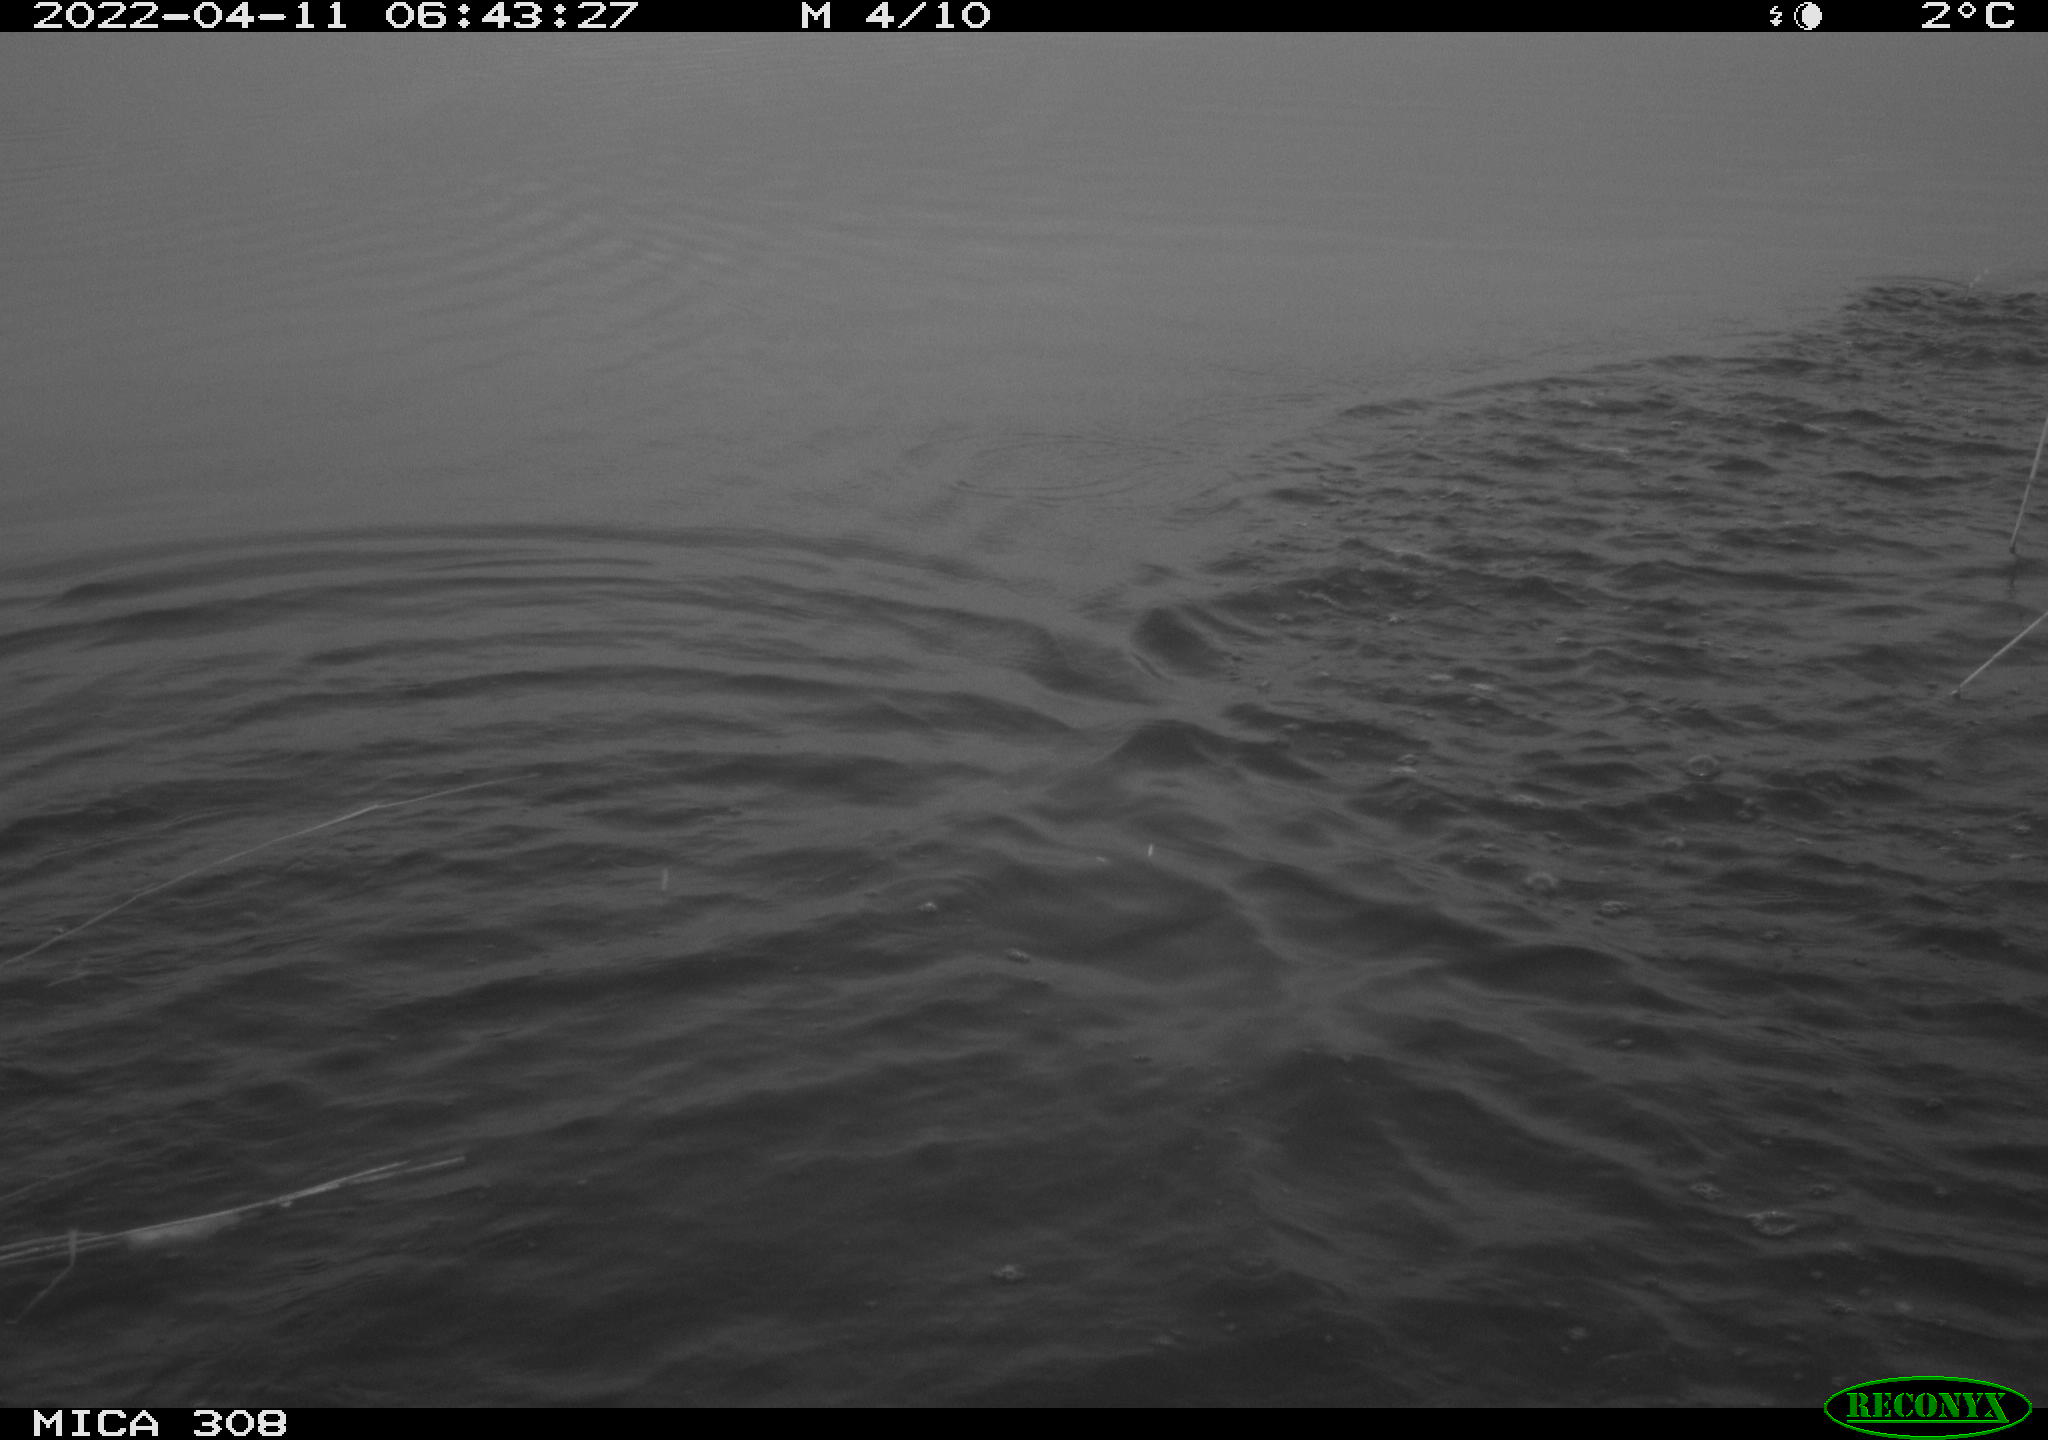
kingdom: Animalia
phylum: Chordata
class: Aves
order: Gruiformes
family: Rallidae
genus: Fulica
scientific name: Fulica atra
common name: Eurasian coot
